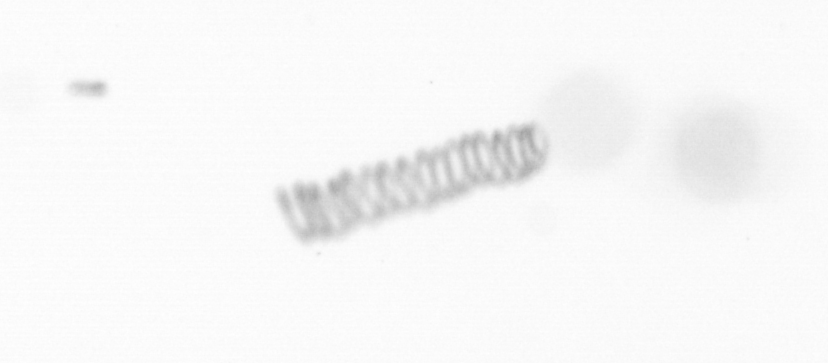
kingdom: Chromista
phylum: Ochrophyta
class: Bacillariophyceae
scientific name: Bacillariophyceae
